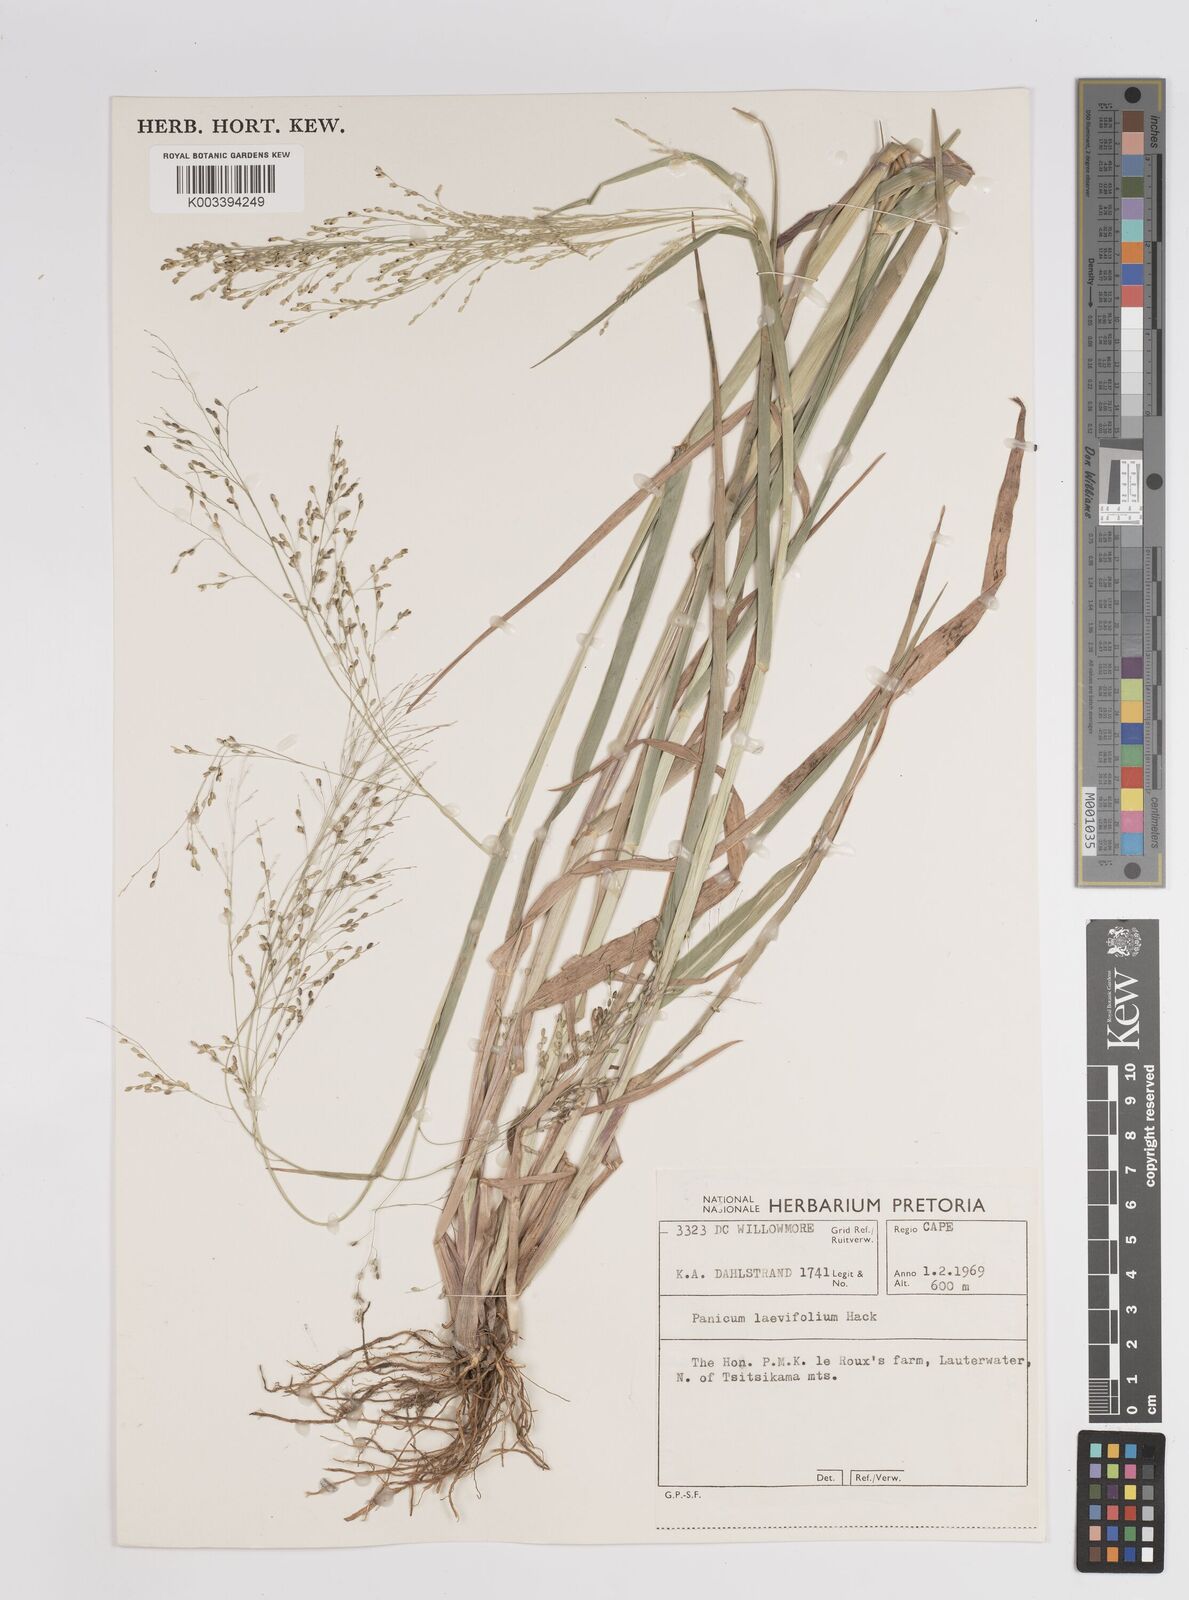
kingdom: Plantae
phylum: Tracheophyta
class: Liliopsida
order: Poales
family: Poaceae
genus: Panicum
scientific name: Panicum schinzii
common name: Sweet grass
